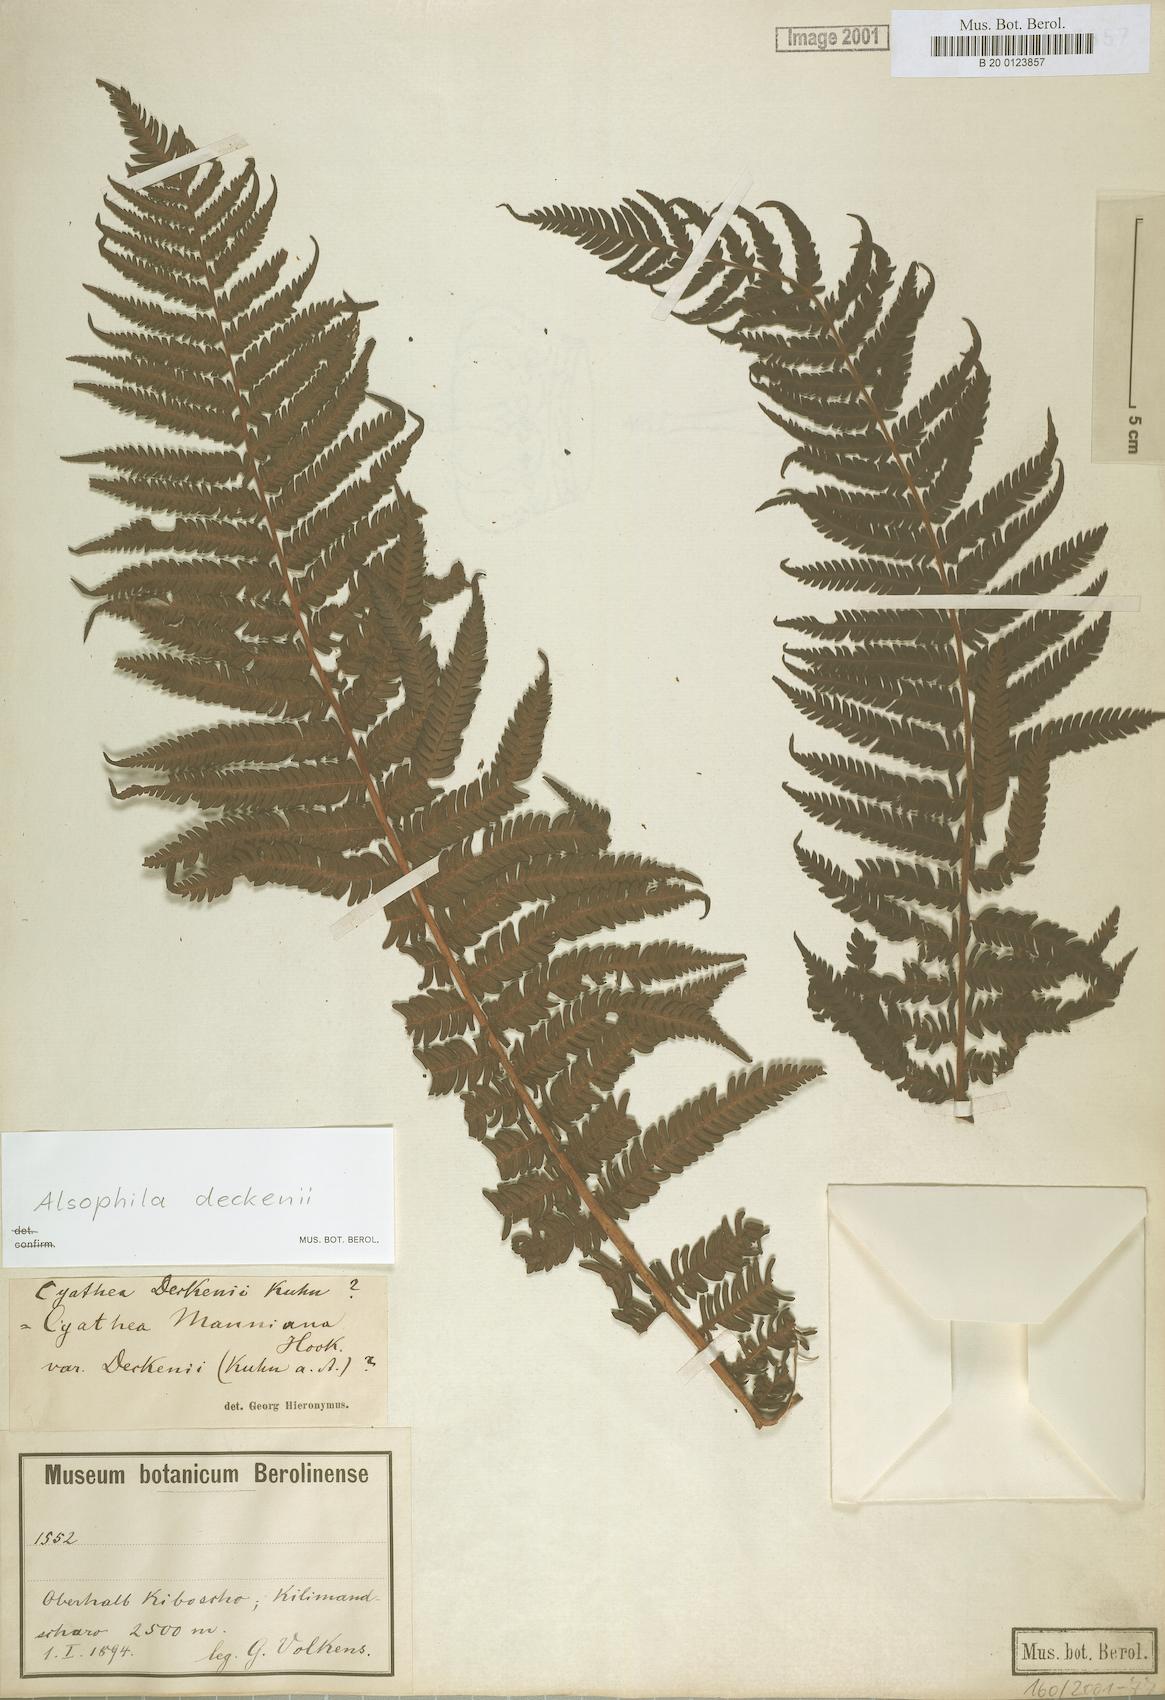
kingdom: Plantae
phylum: Tracheophyta
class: Polypodiopsida
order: Cyatheales
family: Cyatheaceae
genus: Alsophila
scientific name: Alsophila deckenii
